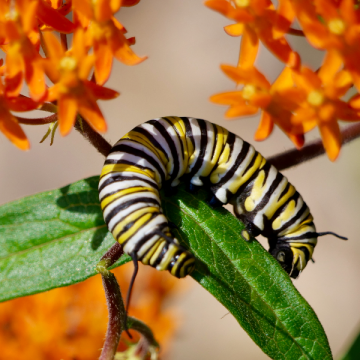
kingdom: Animalia
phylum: Arthropoda
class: Insecta
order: Lepidoptera
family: Nymphalidae
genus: Danaus
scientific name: Danaus plexippus
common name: Monarch
